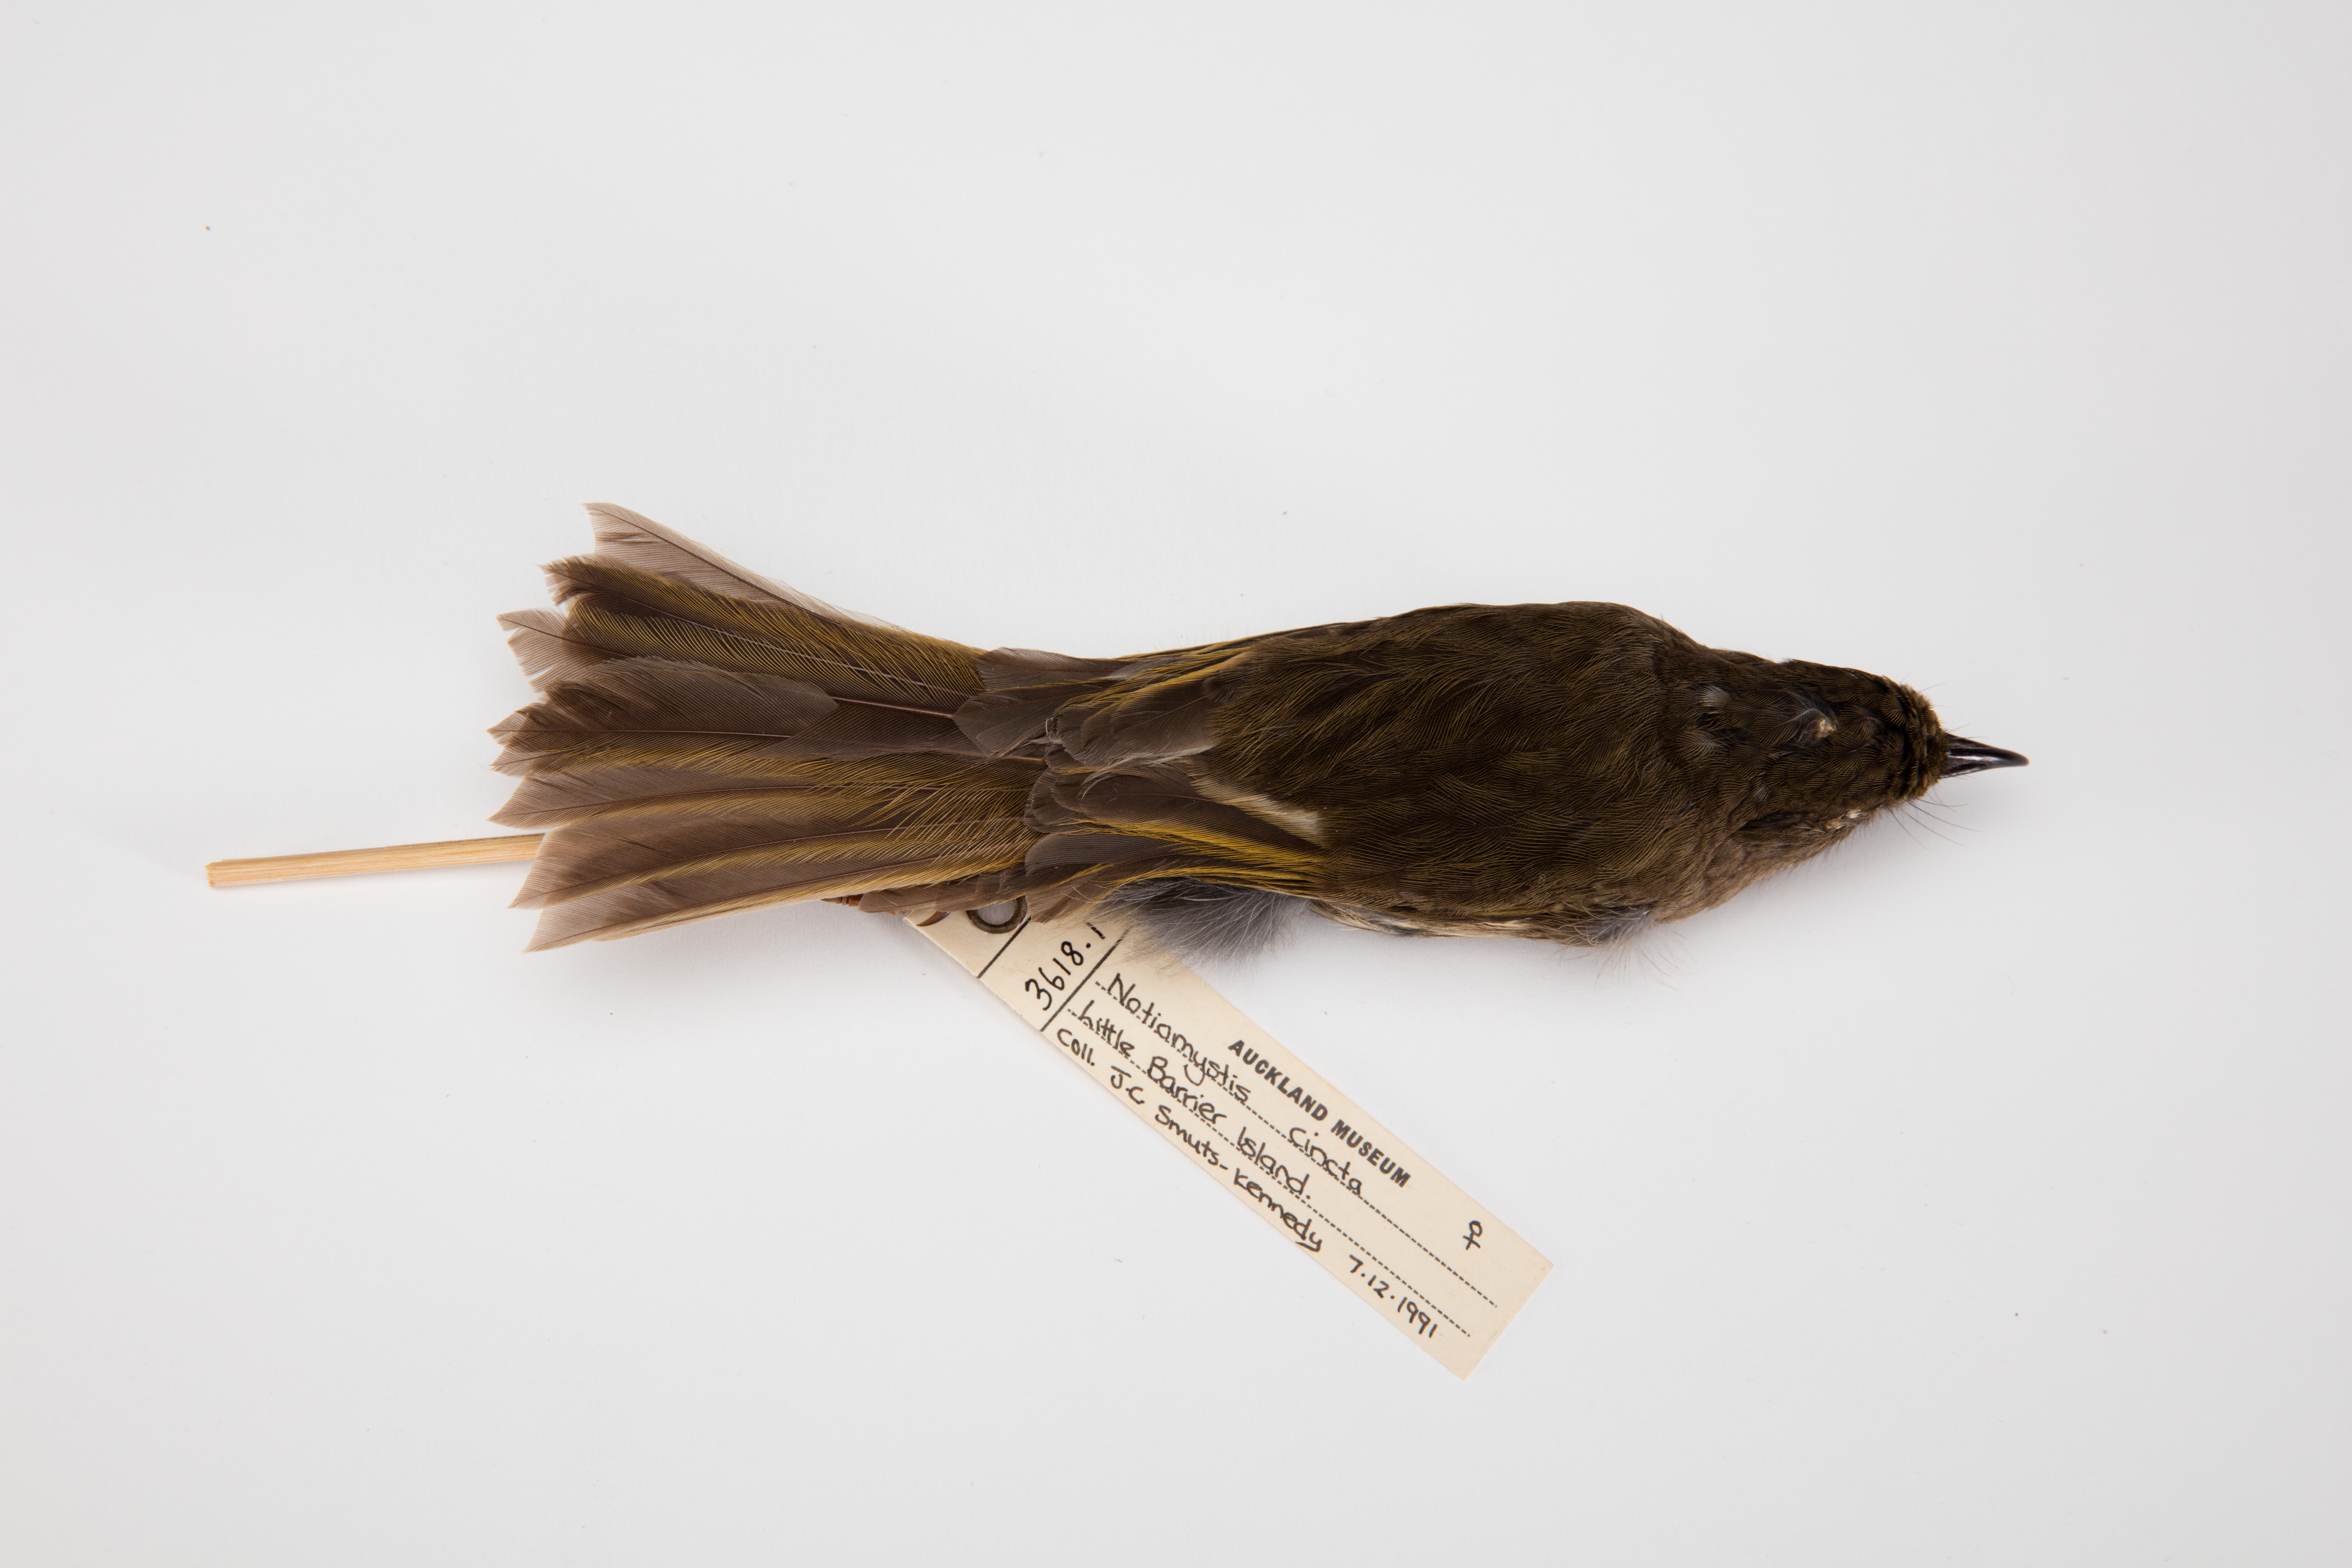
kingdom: Animalia
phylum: Chordata
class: Aves
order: Passeriformes
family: Notiomystidae
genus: Notiomystis
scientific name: Notiomystis cincta
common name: Stitchbird
